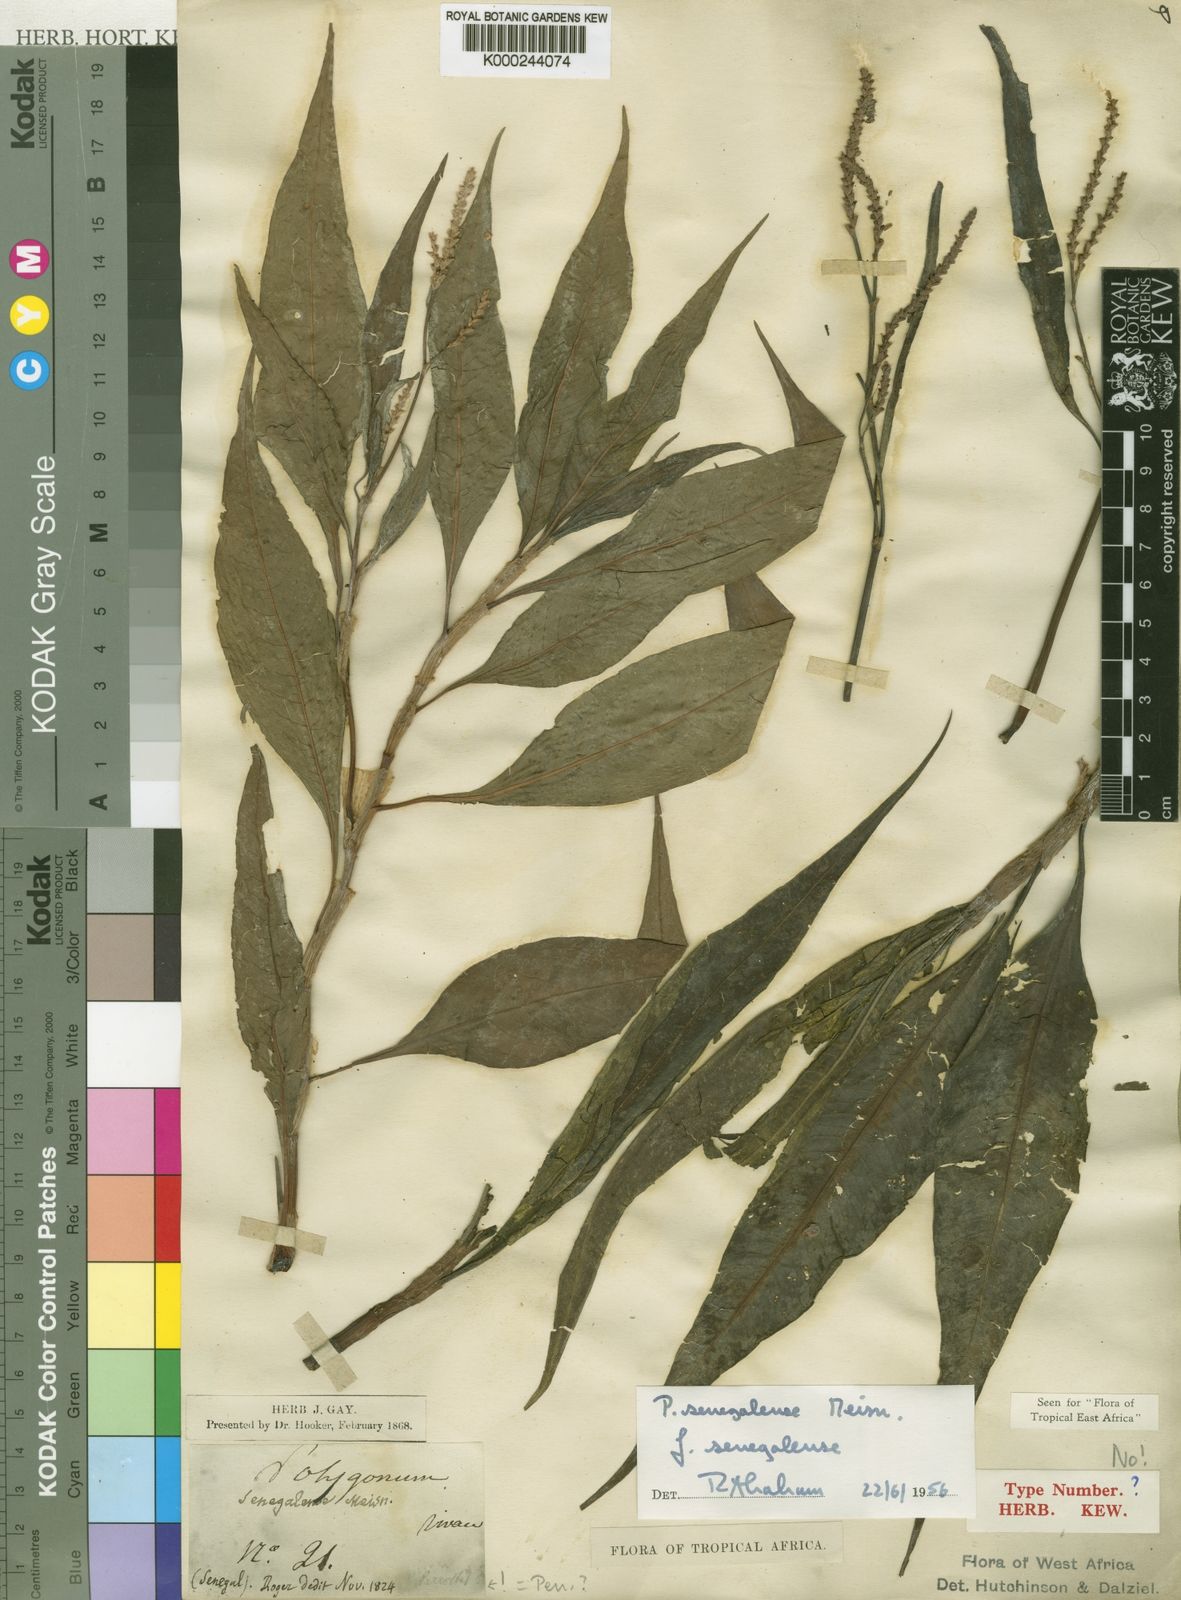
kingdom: Plantae
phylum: Tracheophyta
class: Magnoliopsida
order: Caryophyllales
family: Polygonaceae
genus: Persicaria
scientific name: Persicaria
